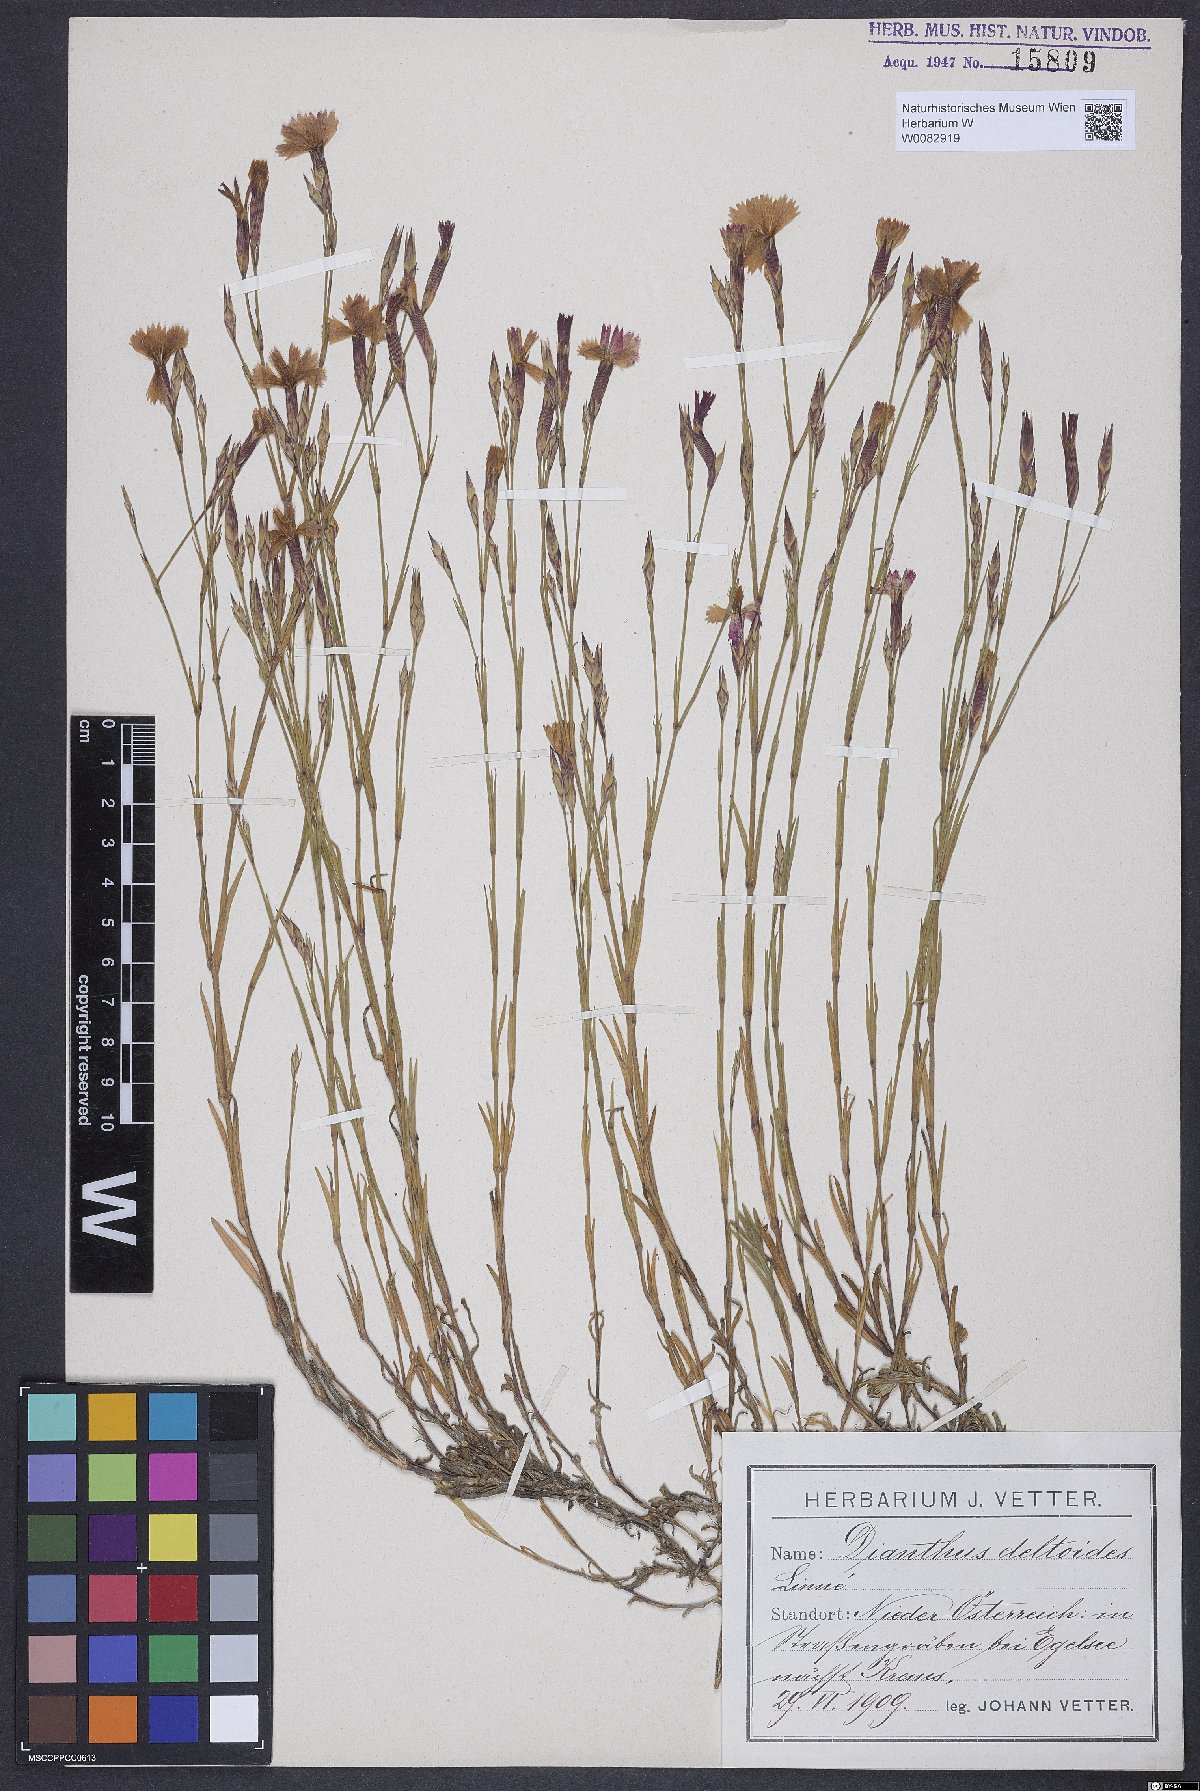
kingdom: Plantae
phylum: Tracheophyta
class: Magnoliopsida
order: Caryophyllales
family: Caryophyllaceae
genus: Dianthus
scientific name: Dianthus deltoides
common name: Maiden pink
